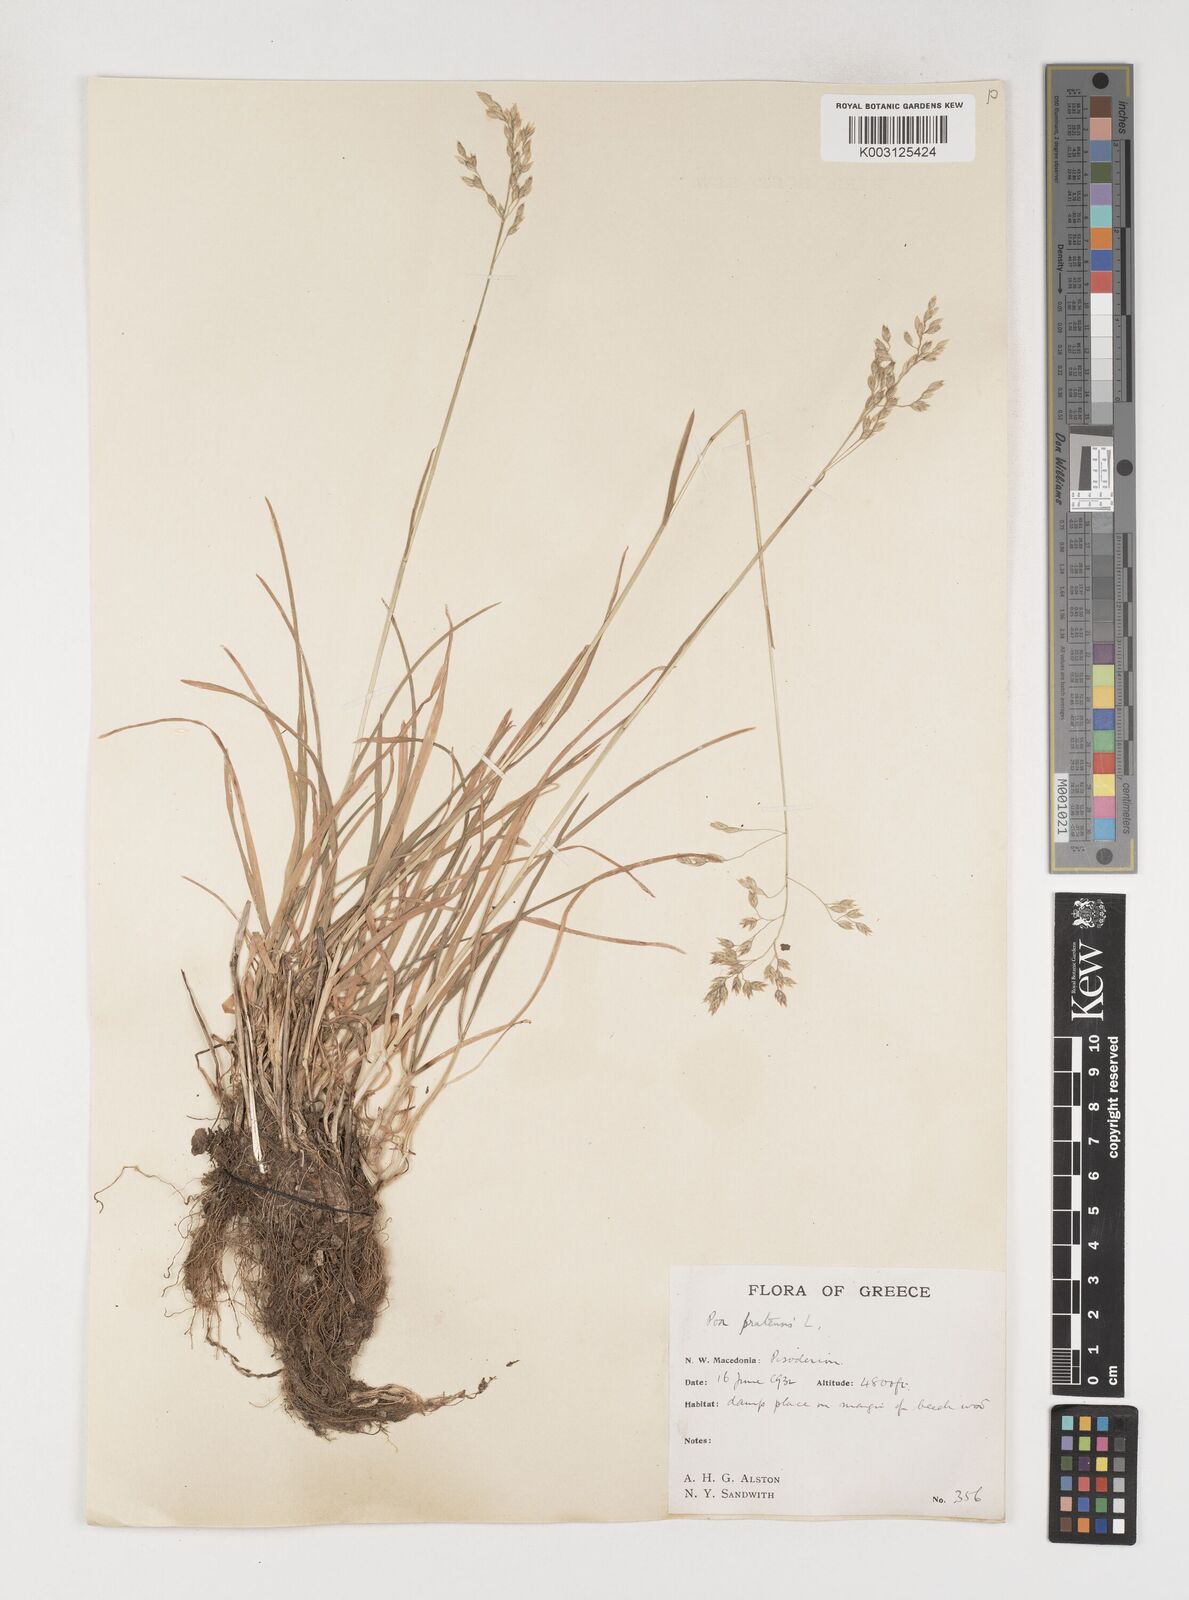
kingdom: Plantae
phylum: Tracheophyta
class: Liliopsida
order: Poales
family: Poaceae
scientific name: Poaceae
